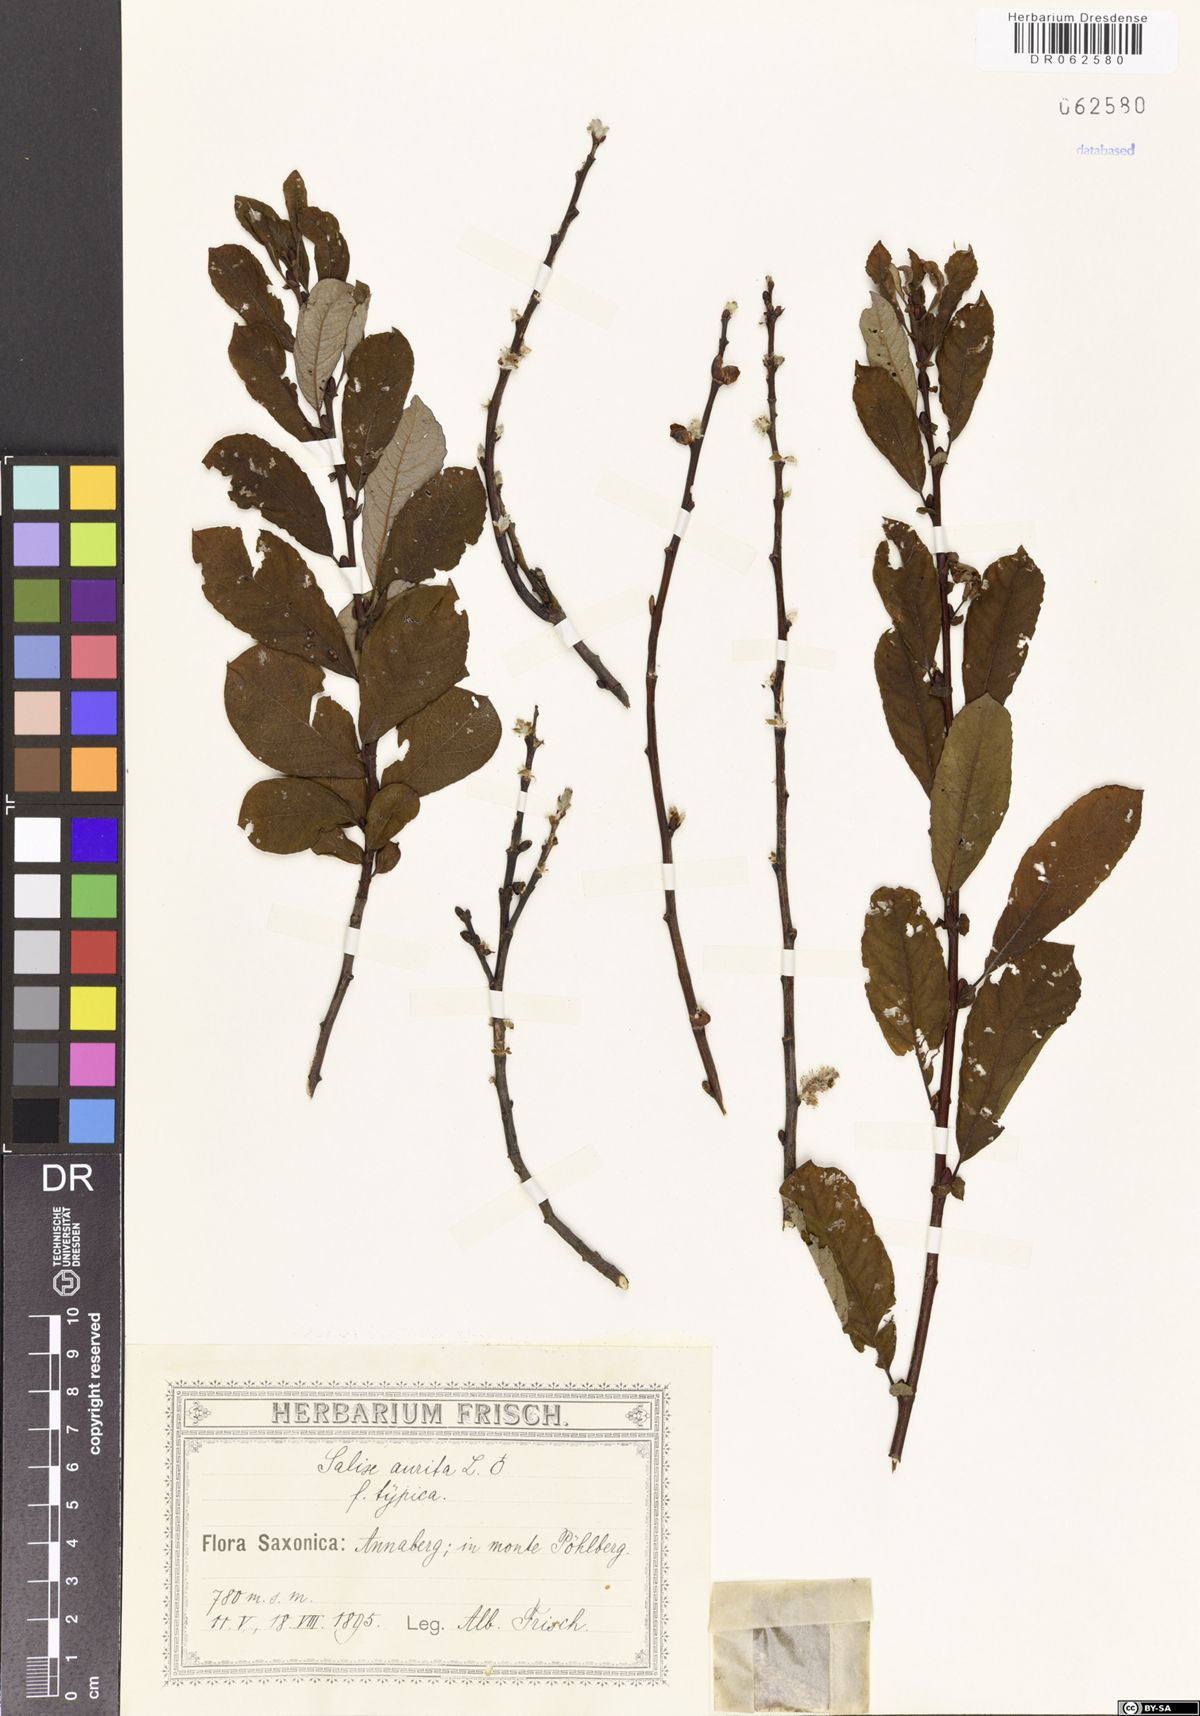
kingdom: Plantae
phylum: Tracheophyta
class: Magnoliopsida
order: Malpighiales
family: Salicaceae
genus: Salix
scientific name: Salix aurita
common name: Eared willow
